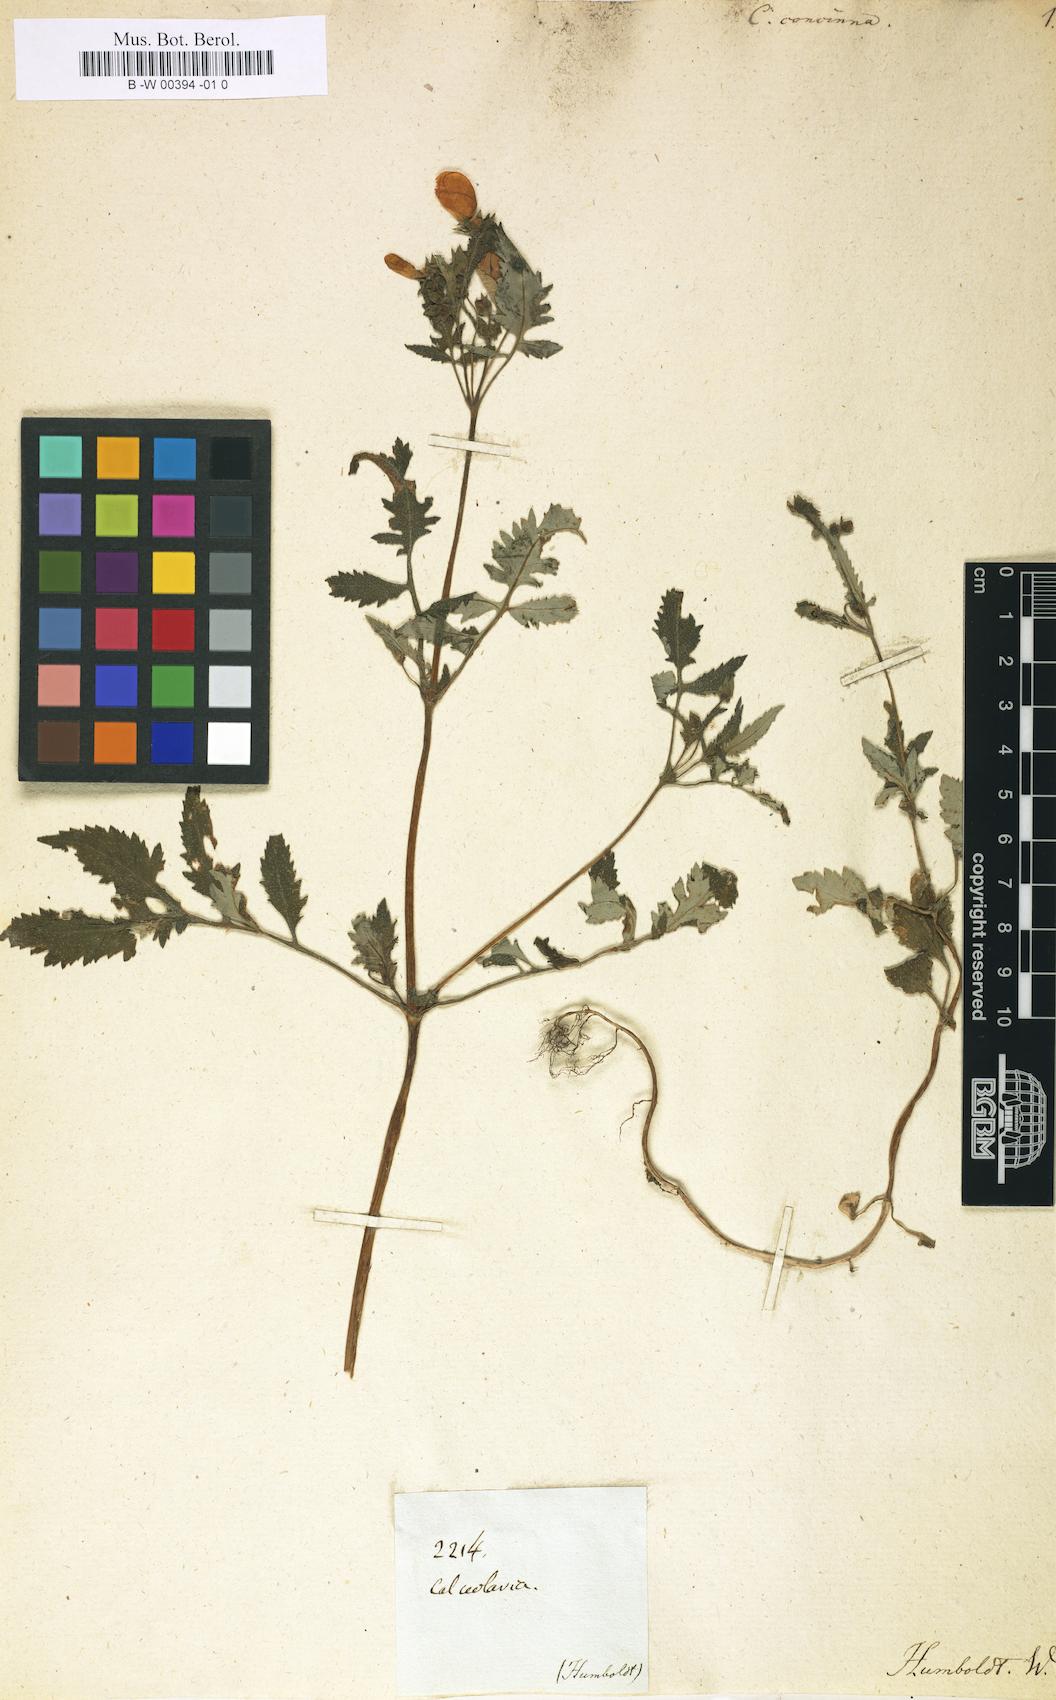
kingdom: Plantae
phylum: Tracheophyta
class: Magnoliopsida
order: Lamiales
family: Calceolariaceae
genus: Calceolaria
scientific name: Calceolaria tripartita
